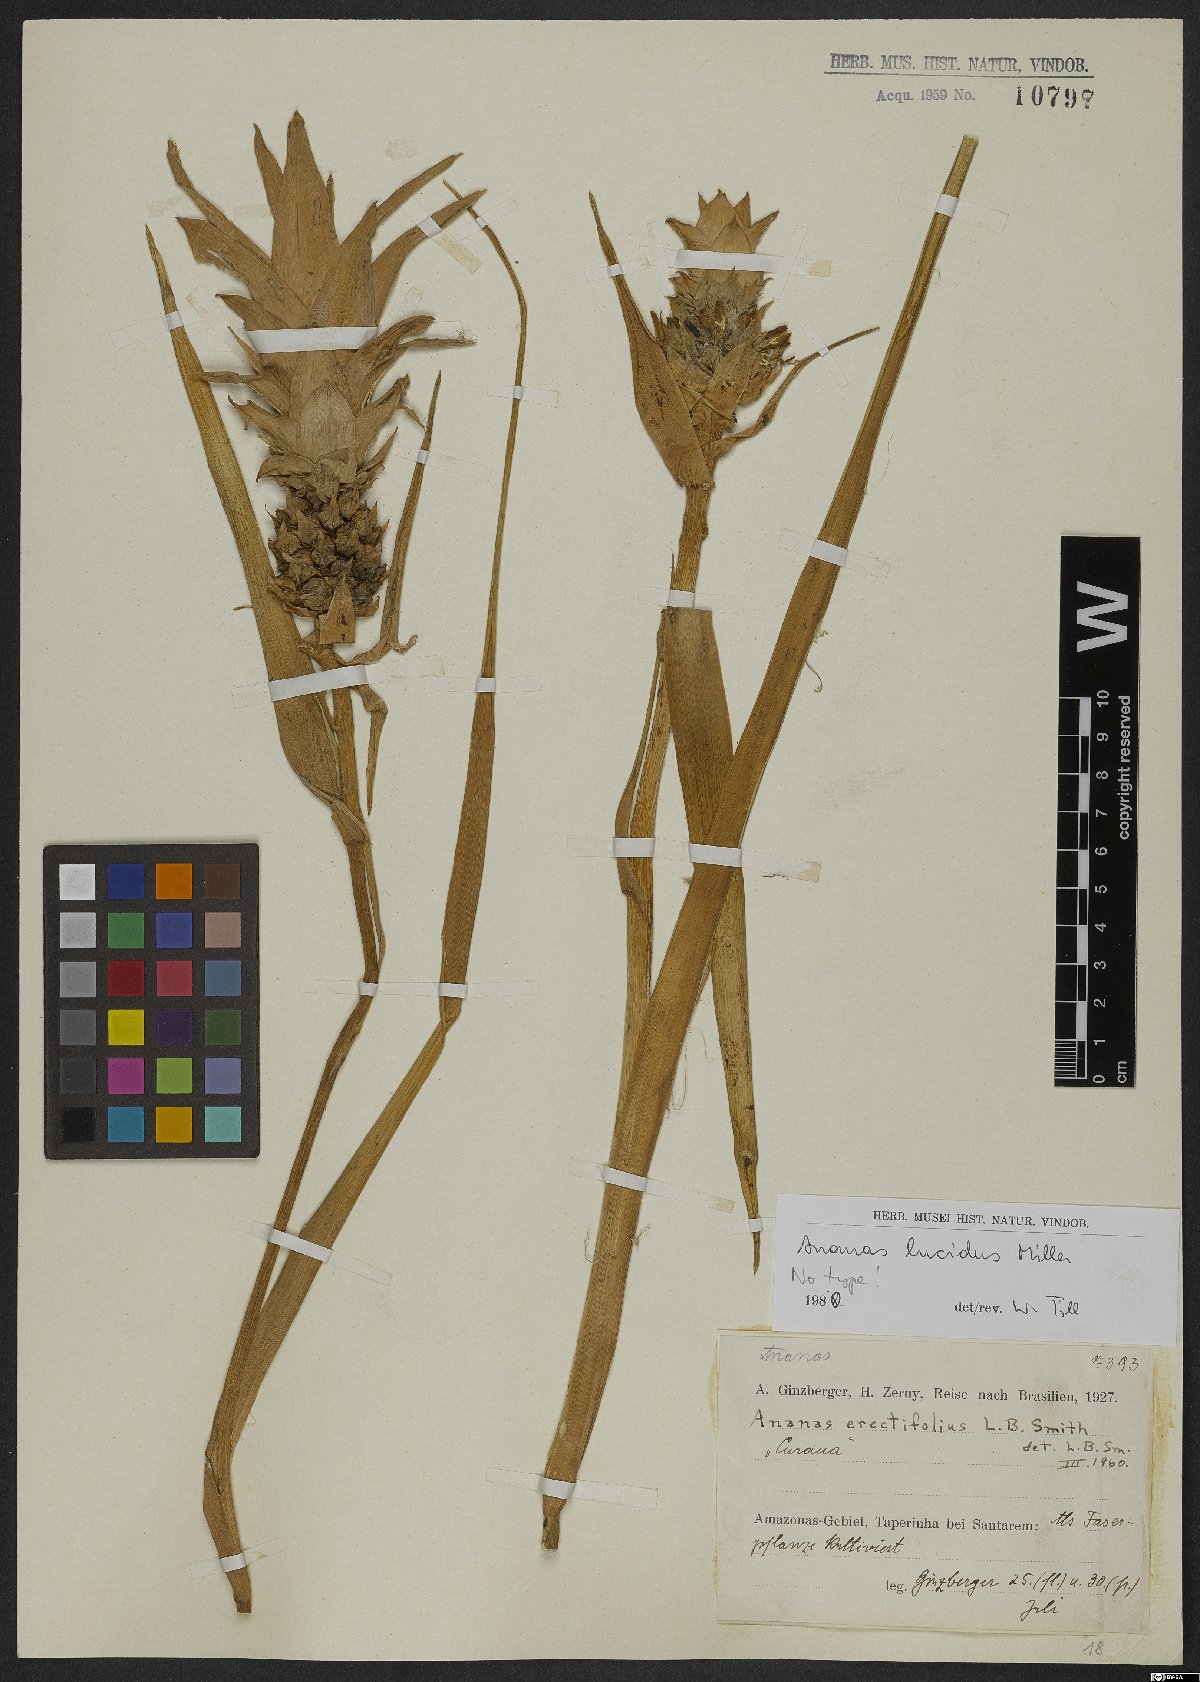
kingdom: Plantae
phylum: Tracheophyta
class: Liliopsida
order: Poales
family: Bromeliaceae
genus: Ananas
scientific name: Ananas comosus
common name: Pineapple
